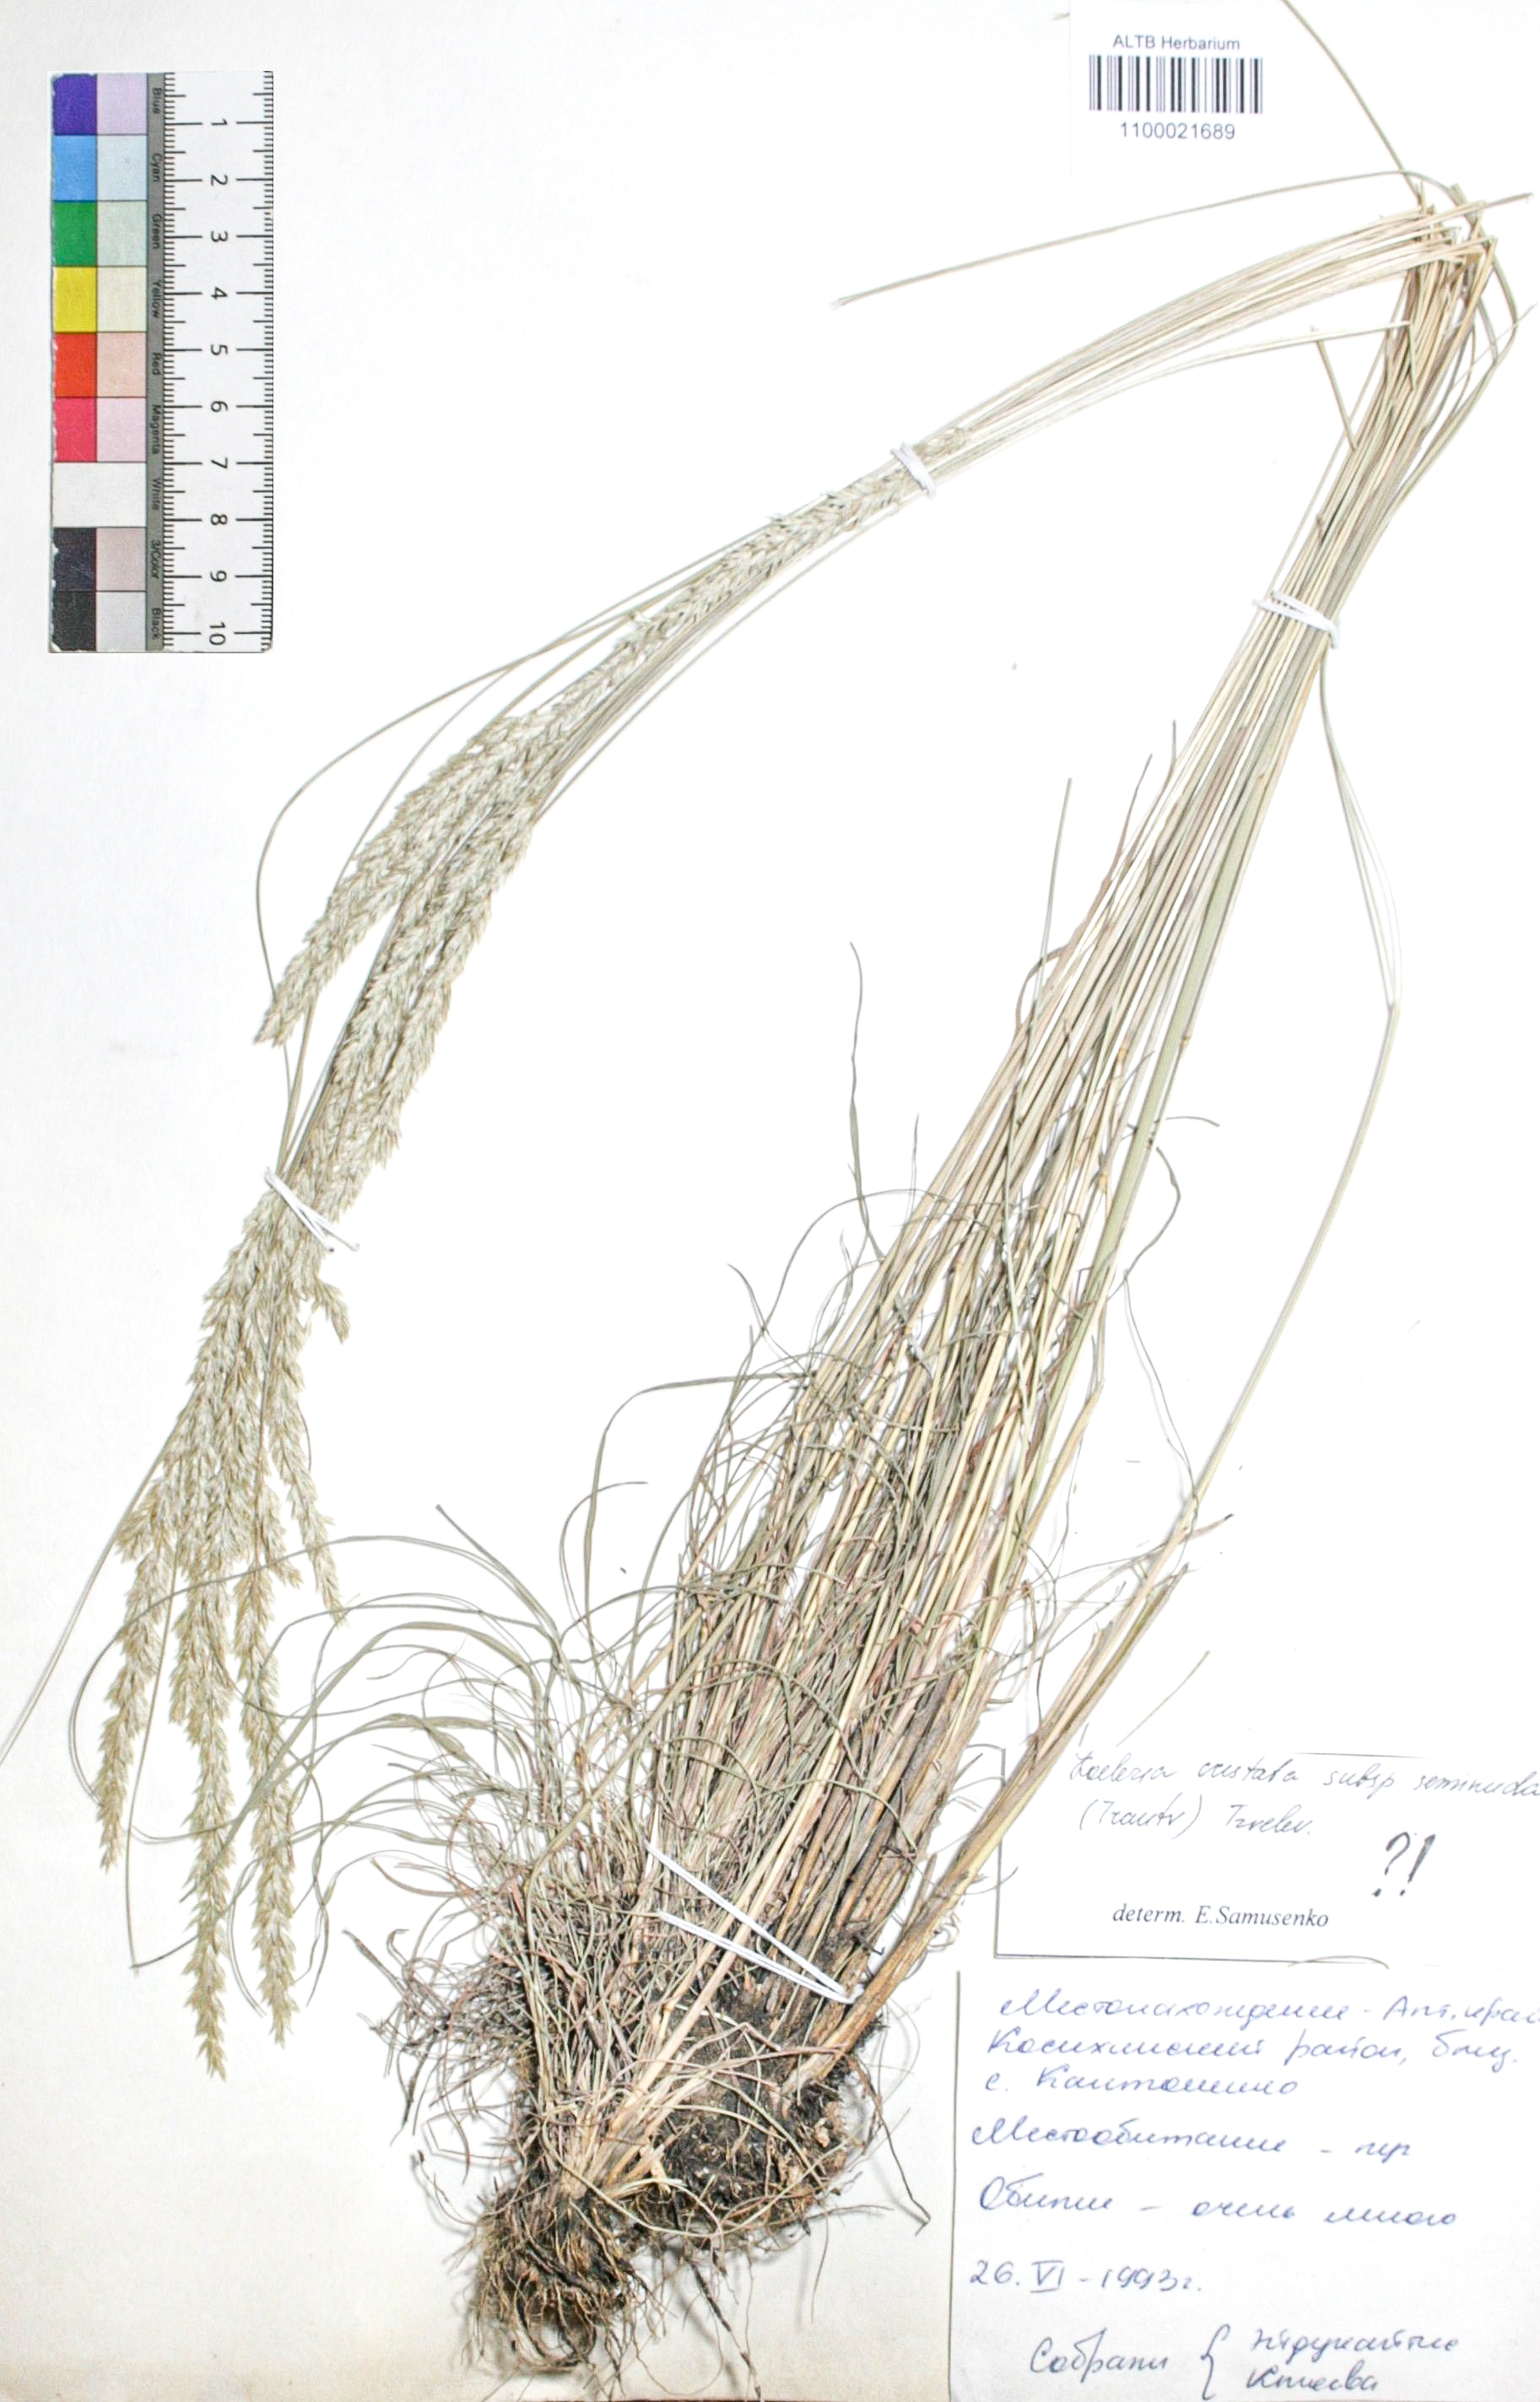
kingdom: Plantae
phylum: Tracheophyta
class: Liliopsida
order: Poales
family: Poaceae
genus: Koeleria
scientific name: Koeleria macrantha
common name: Crested hair-grass
